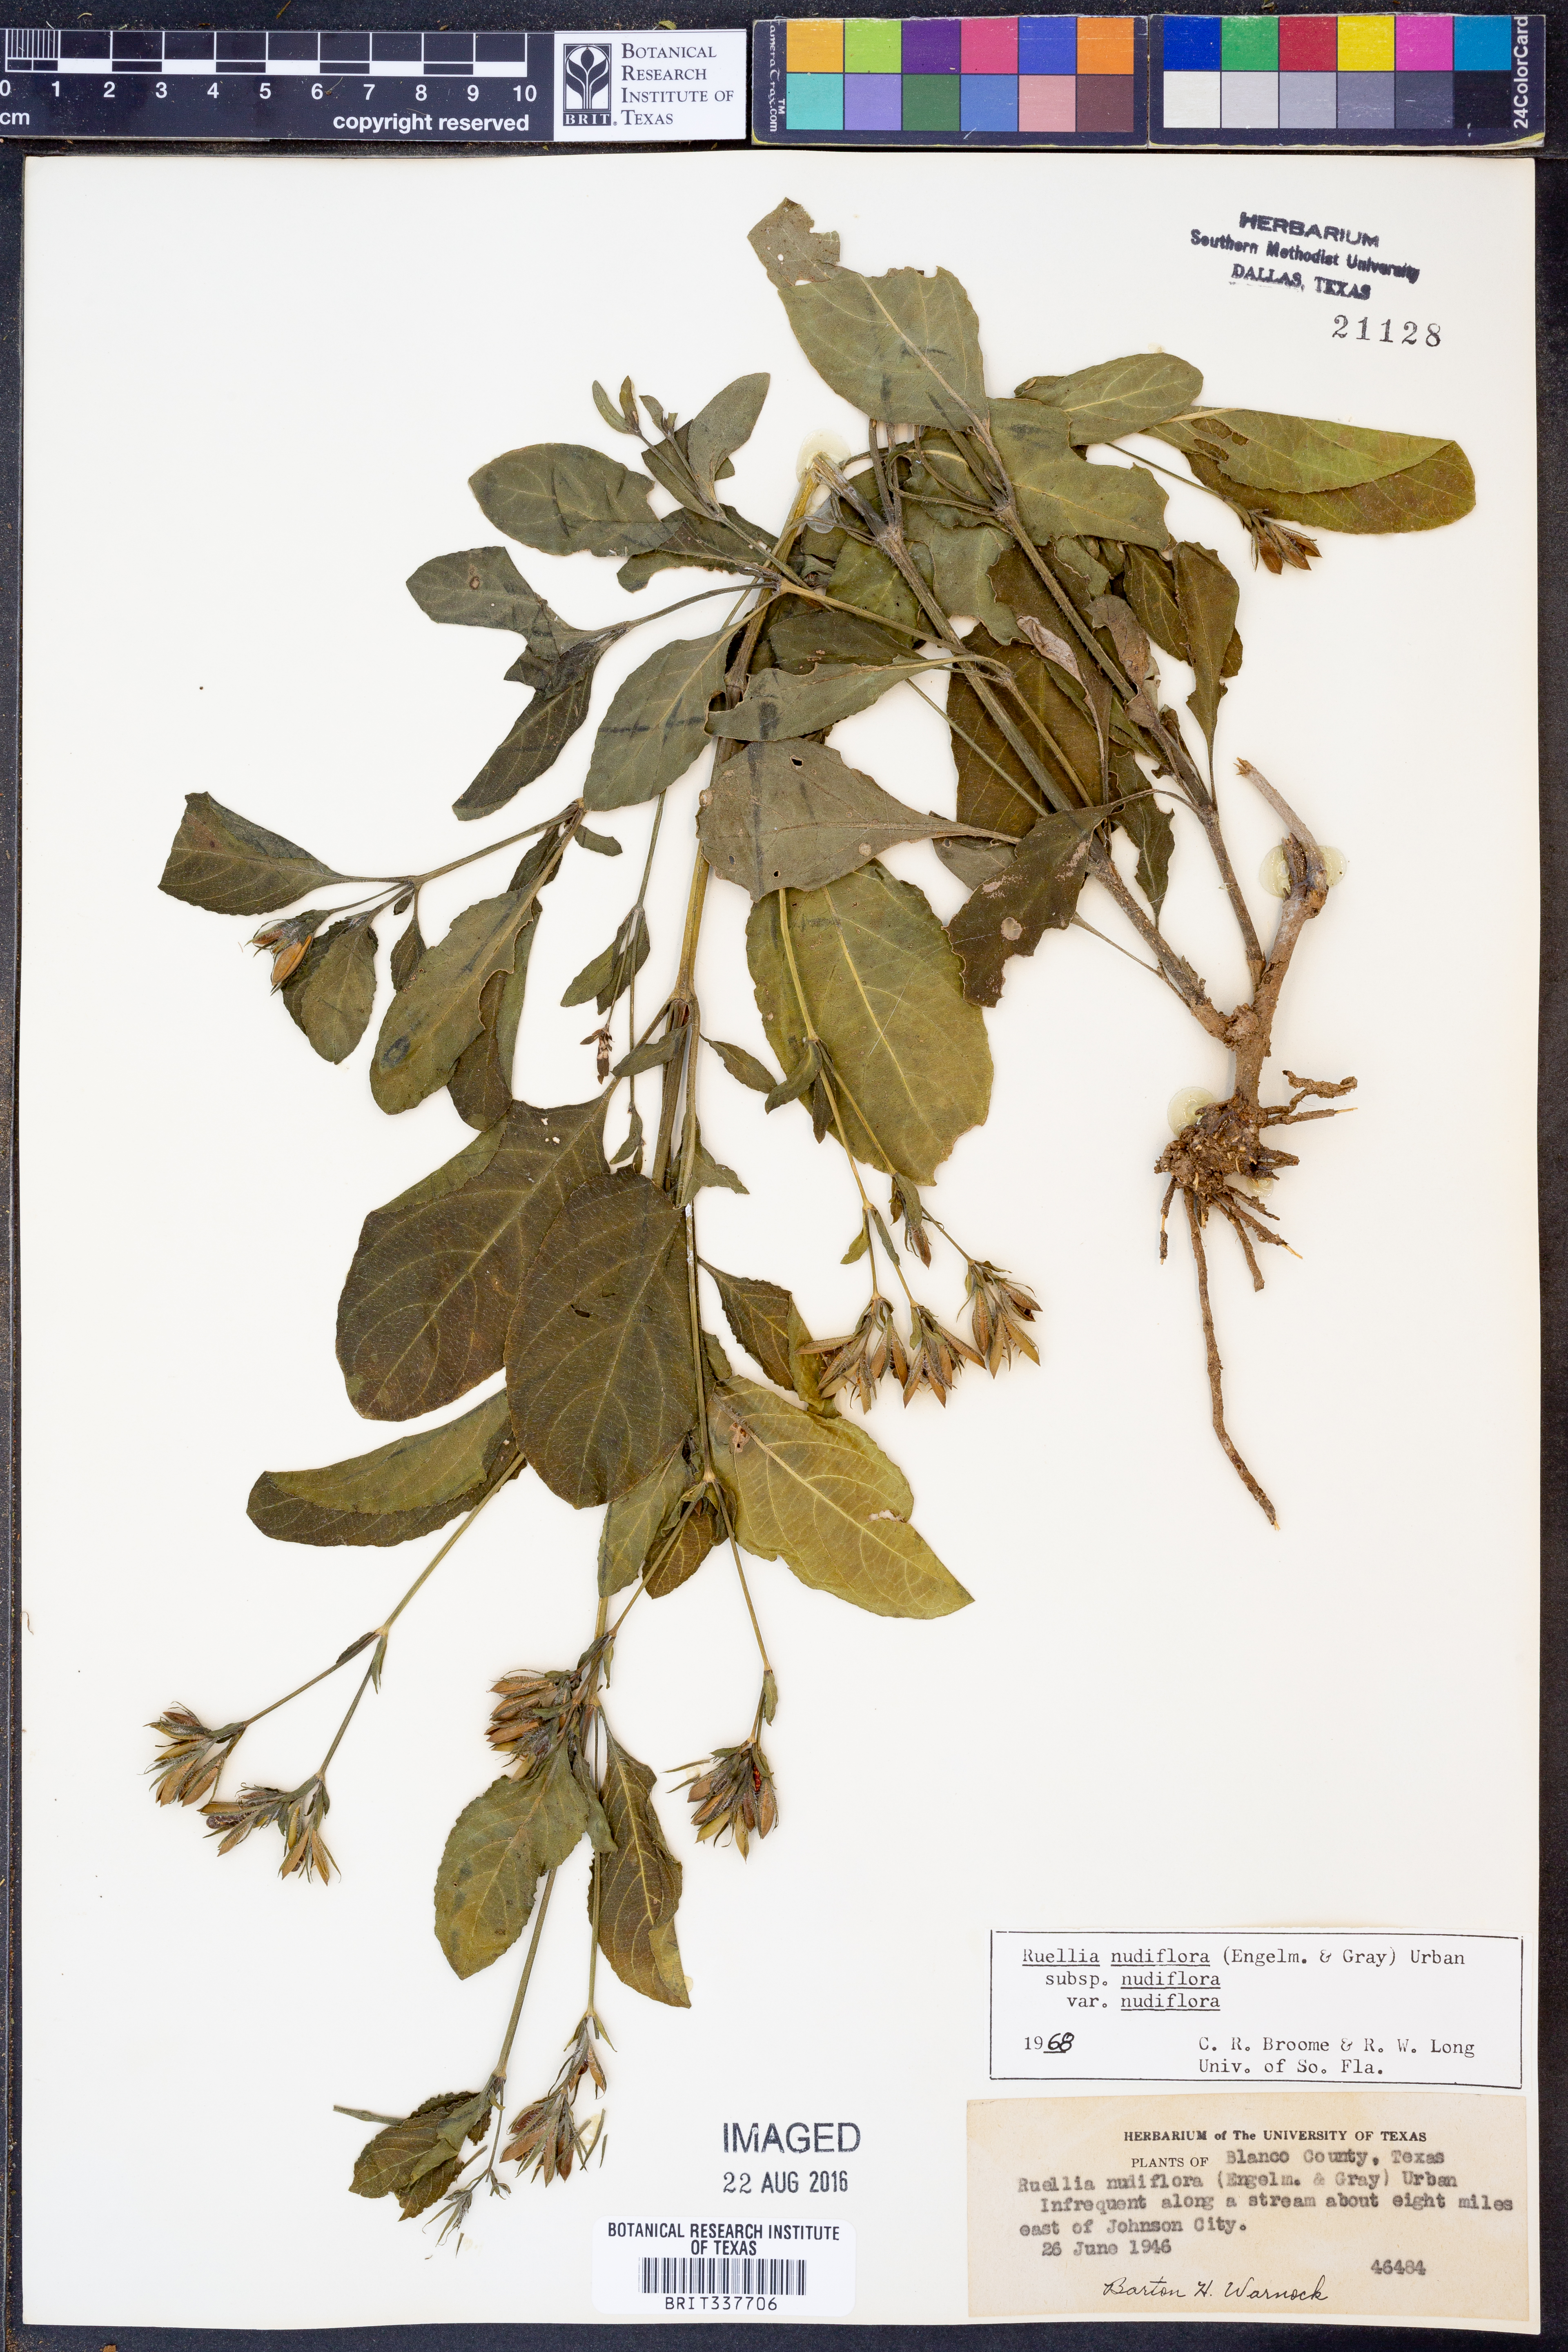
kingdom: Plantae
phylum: Tracheophyta
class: Magnoliopsida
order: Lamiales
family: Acanthaceae
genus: Ruellia
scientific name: Ruellia ciliatiflora
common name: Hairyflower wild petunia
